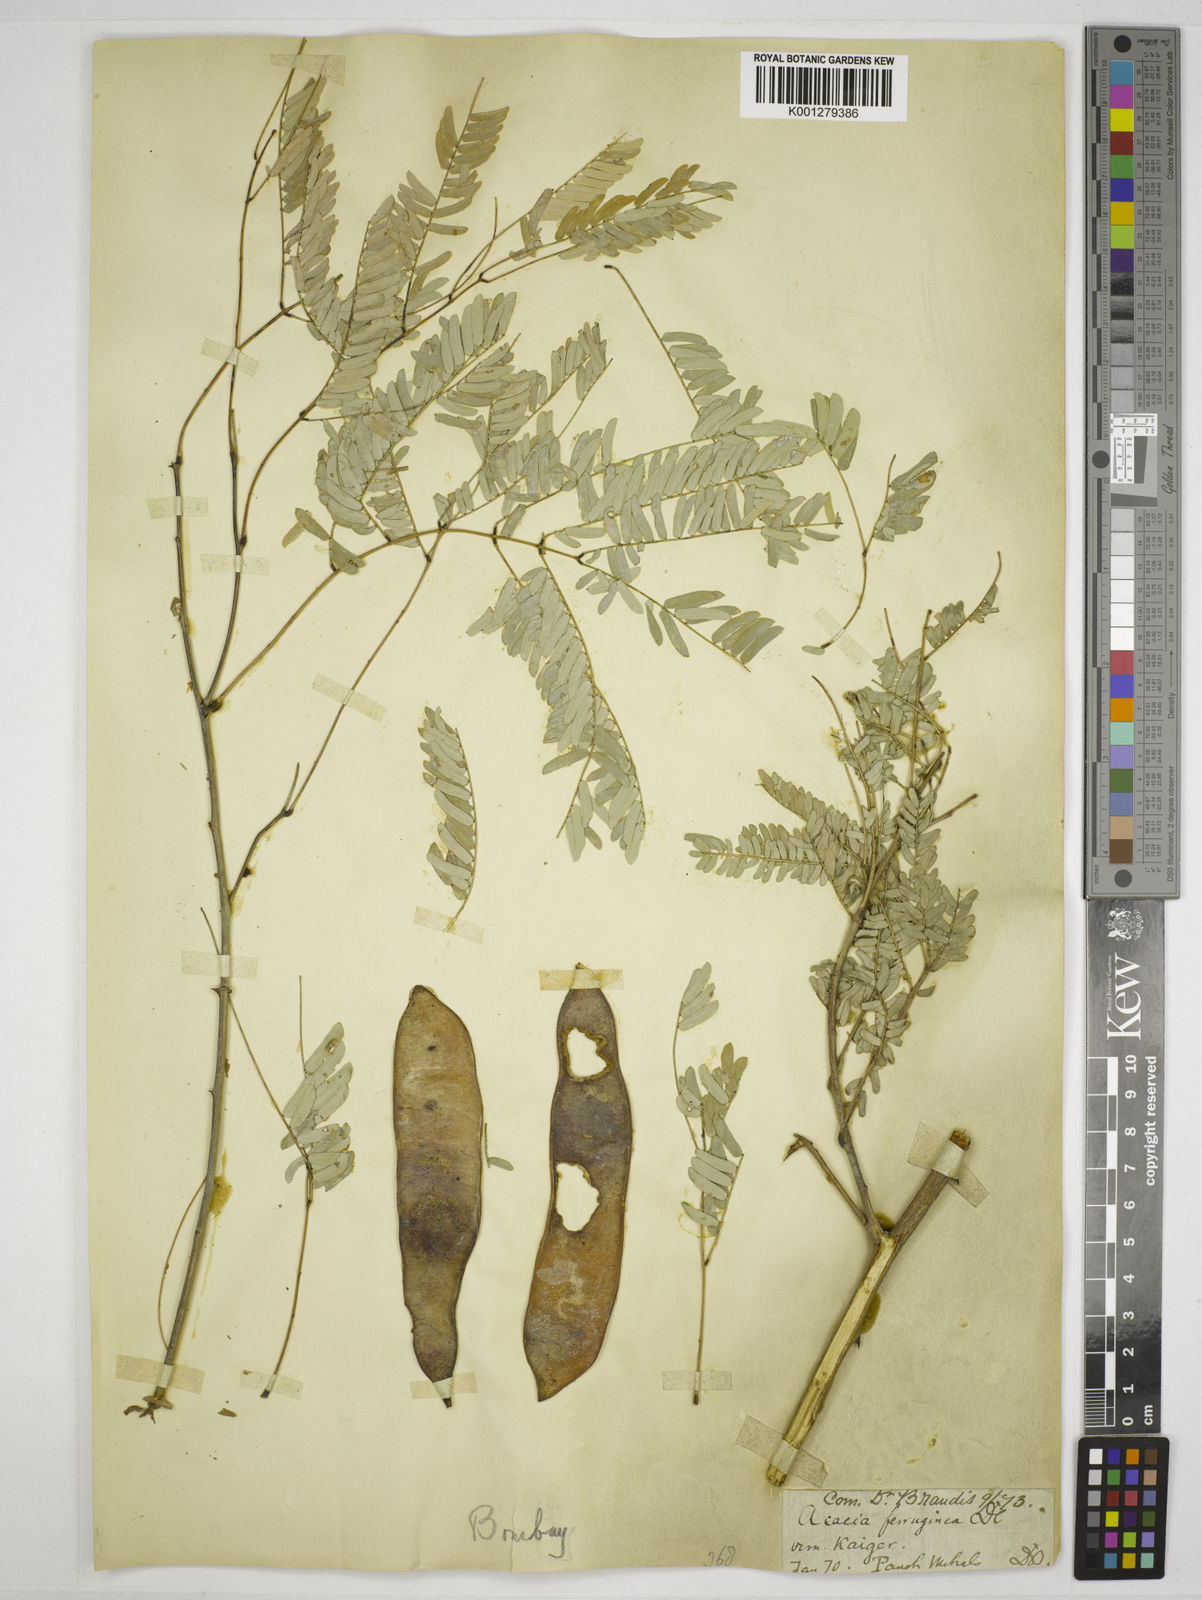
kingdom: Plantae
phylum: Tracheophyta
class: Magnoliopsida
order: Fabales
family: Fabaceae
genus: Senegalia
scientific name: Senegalia ferruginea
